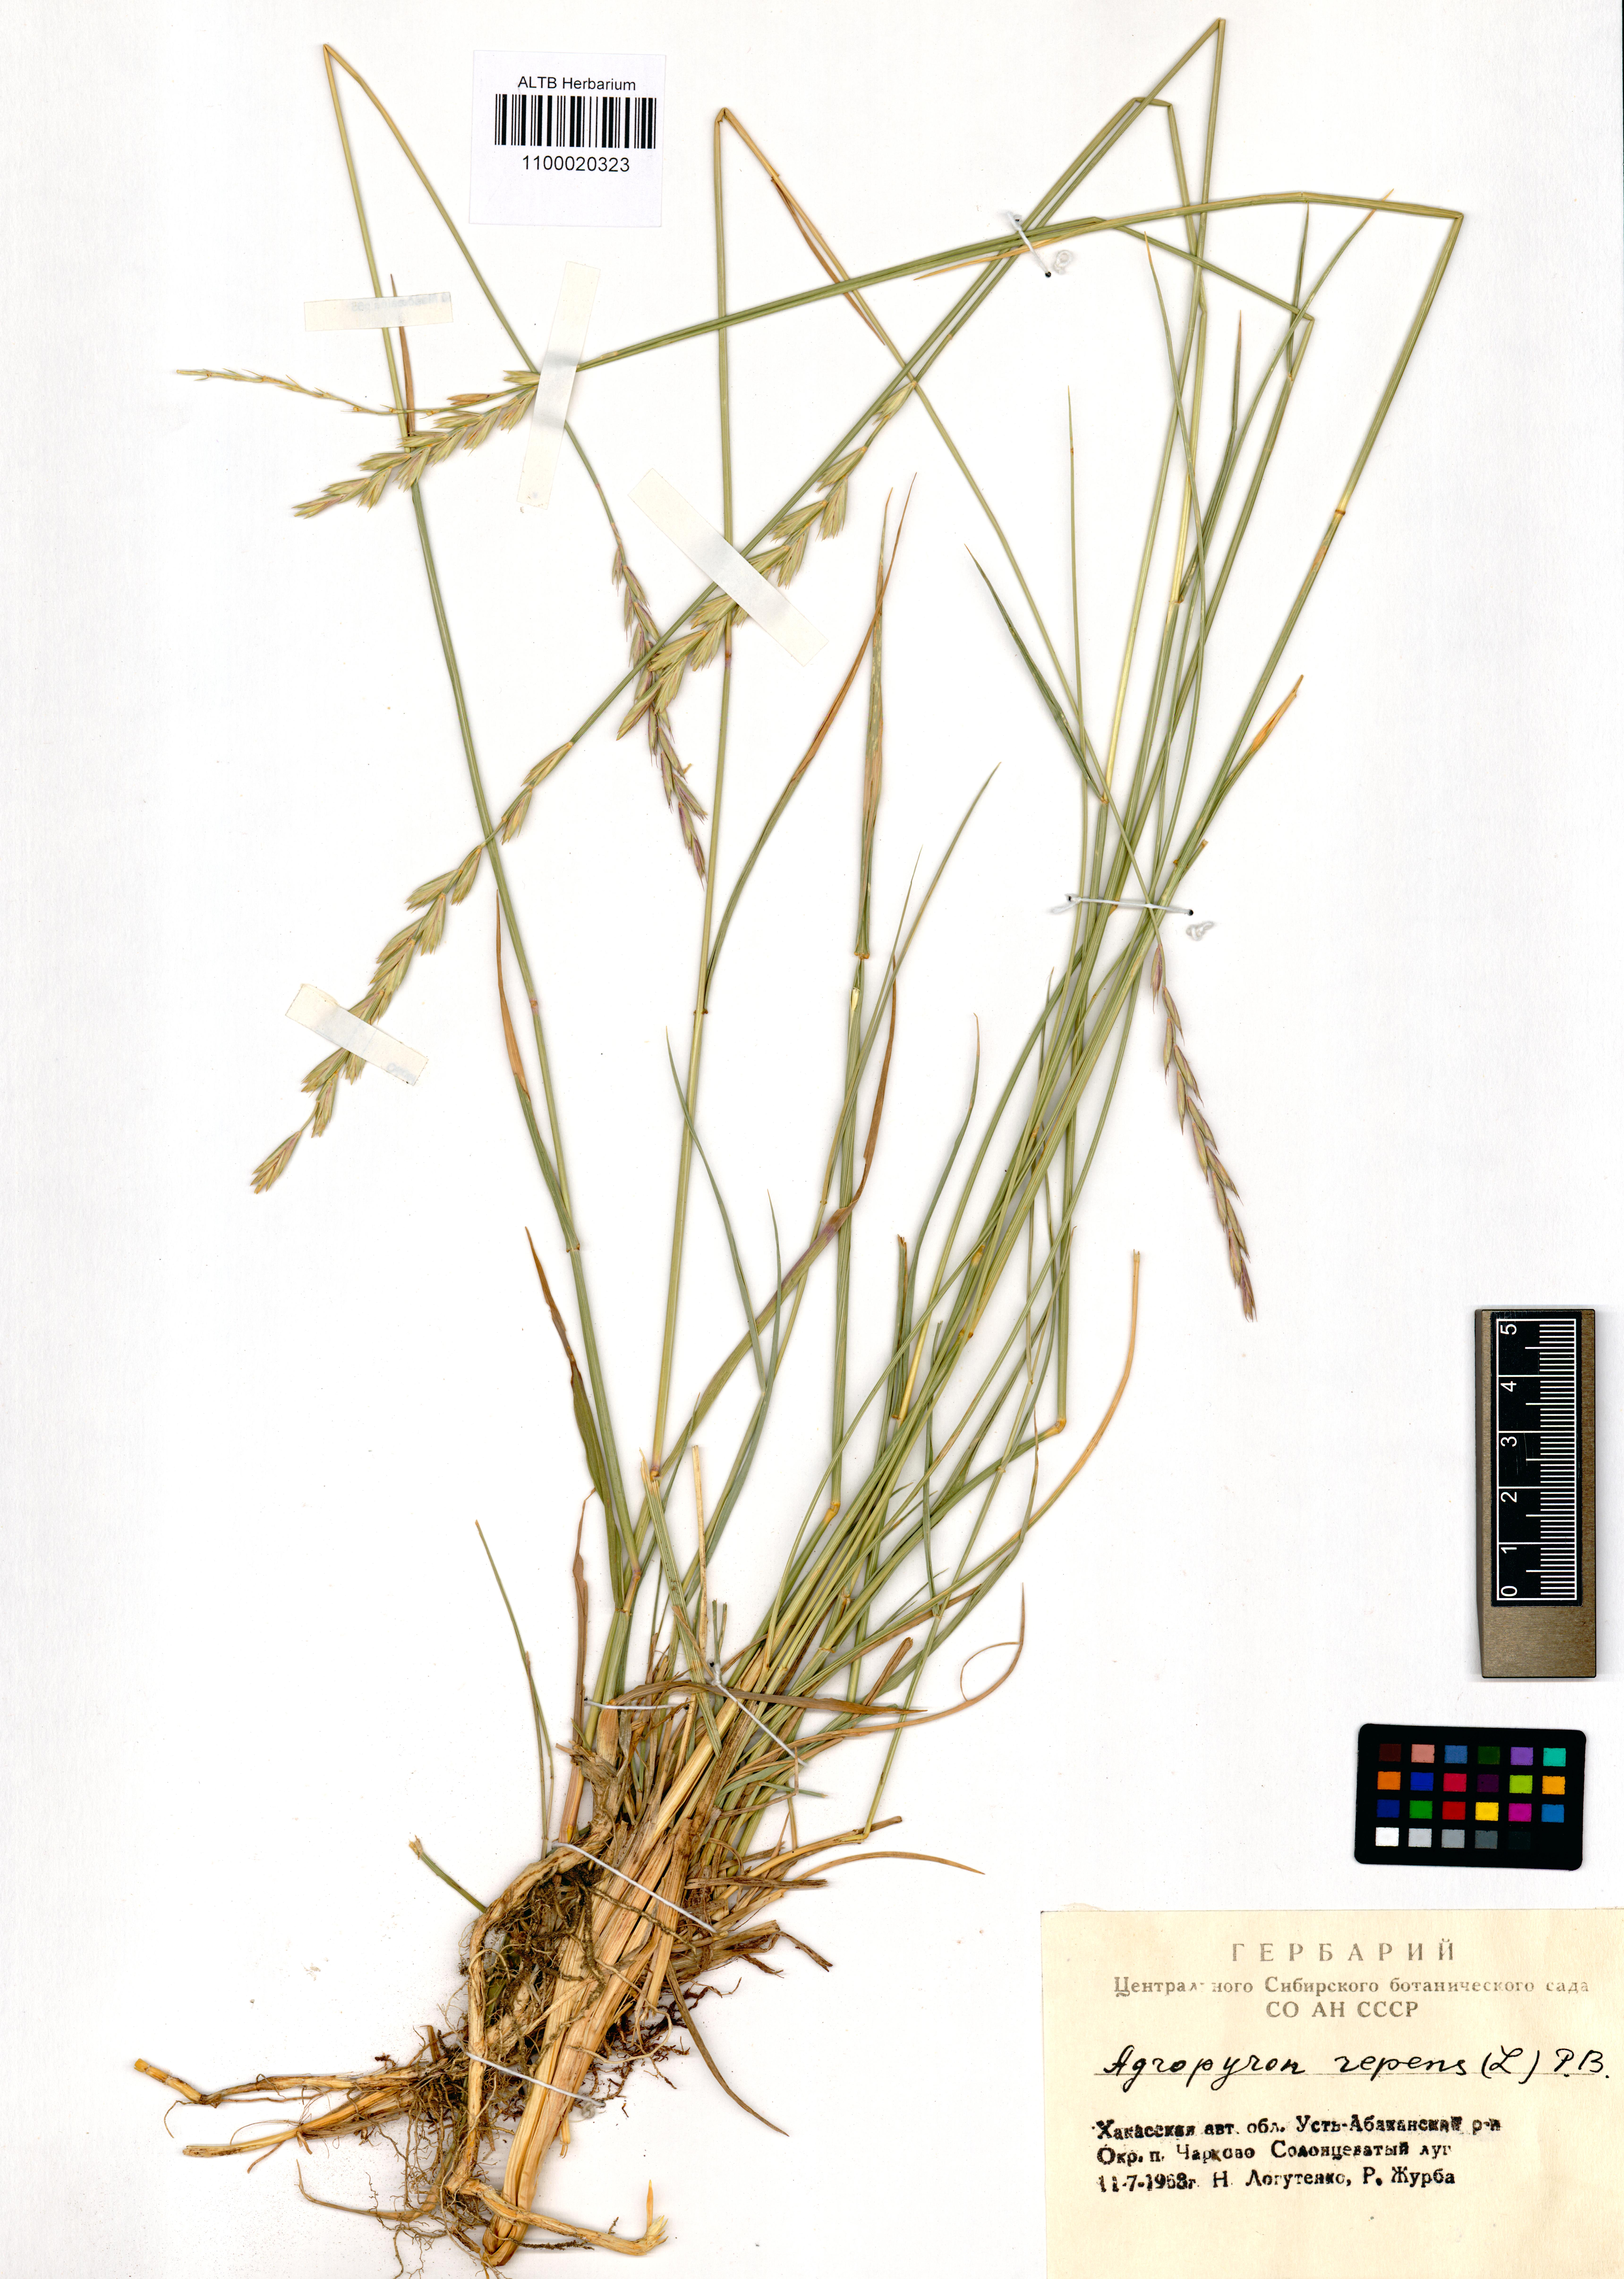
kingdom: Plantae
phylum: Tracheophyta
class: Liliopsida
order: Poales
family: Poaceae
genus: Elymus
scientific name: Elymus repens
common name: Quackgrass
